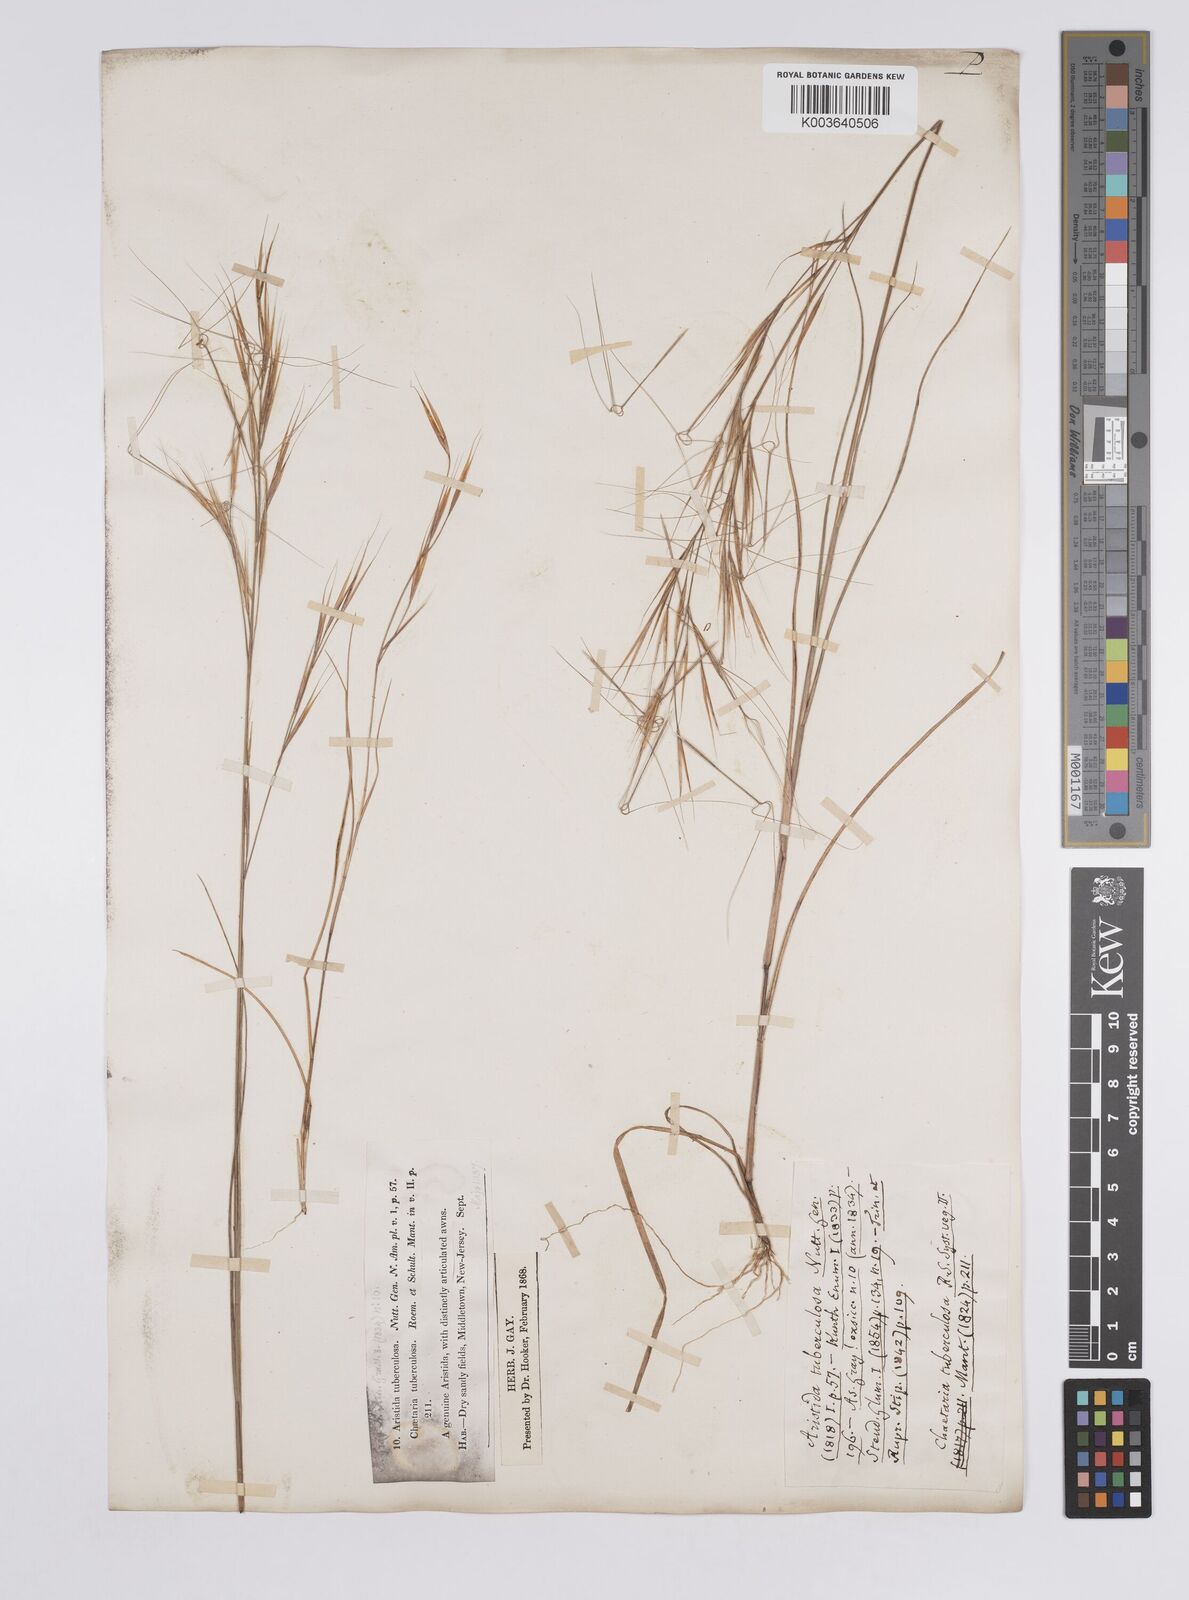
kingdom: Plantae
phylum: Tracheophyta
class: Liliopsida
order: Poales
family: Poaceae
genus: Aristida
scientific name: Aristida tuberculosa
